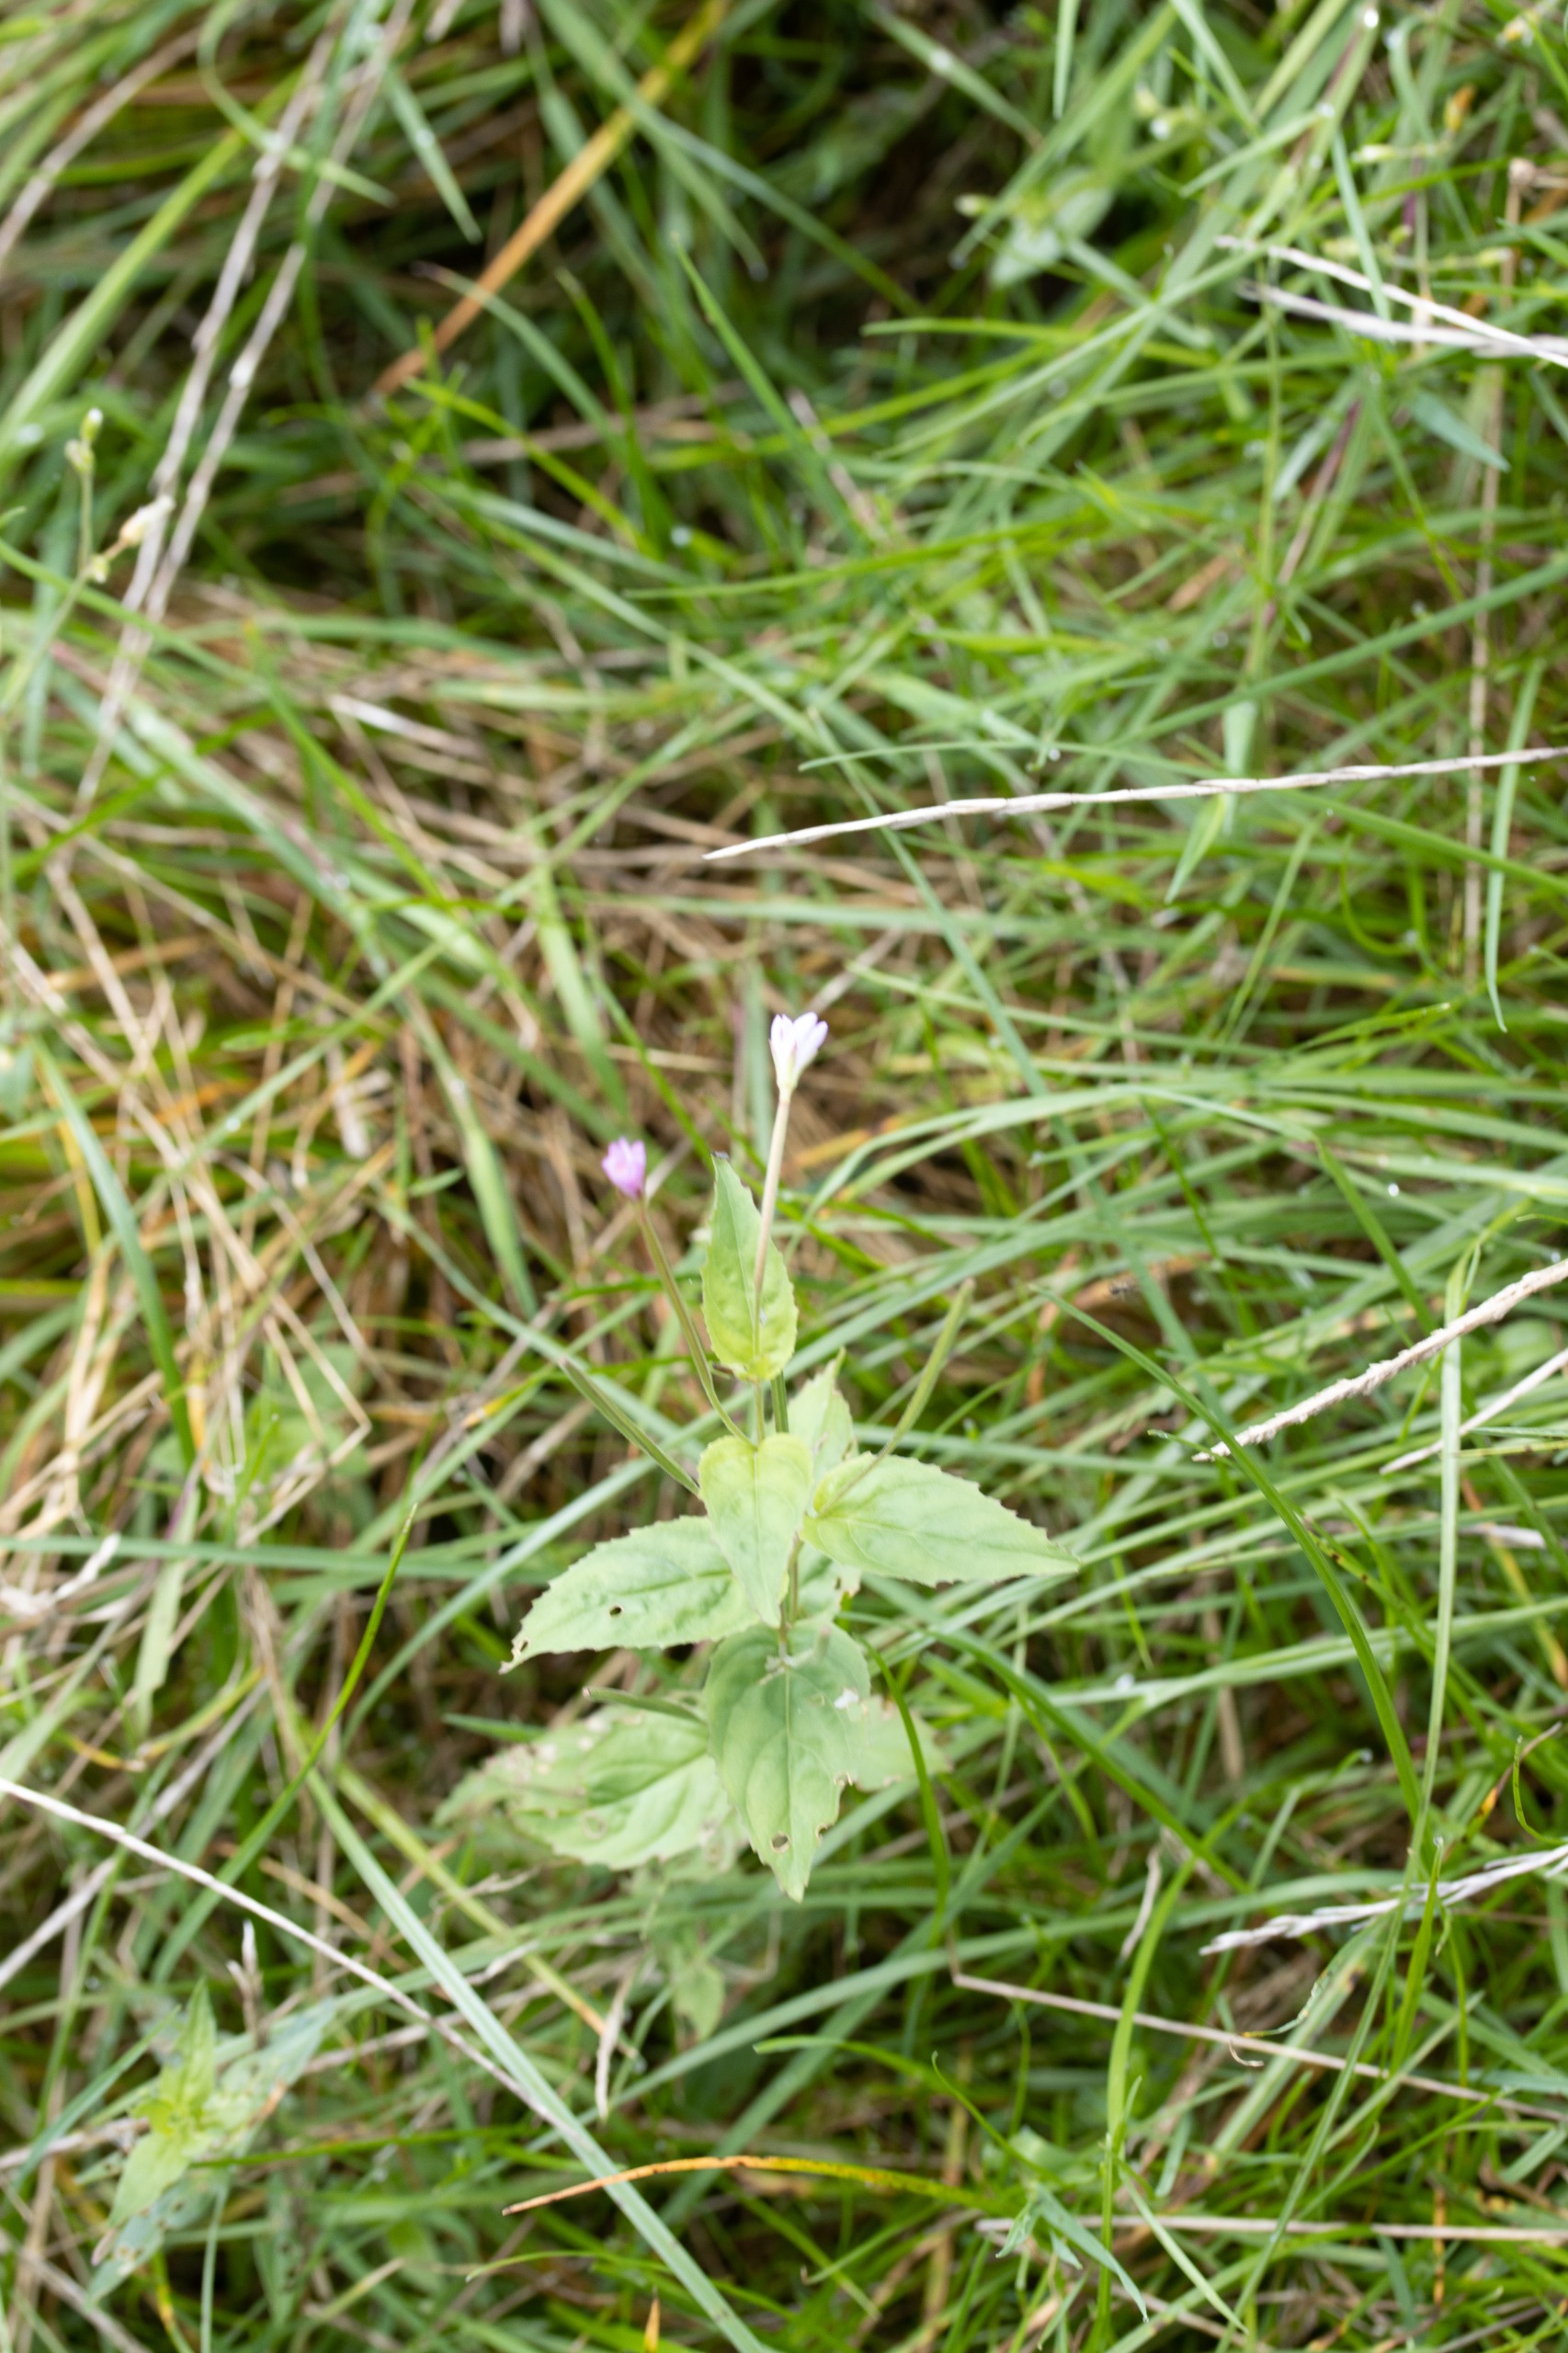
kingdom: Plantae
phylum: Tracheophyta
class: Magnoliopsida
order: Myrtales
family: Onagraceae
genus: Epilobium
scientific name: Epilobium montanum
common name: Glat dueurt
